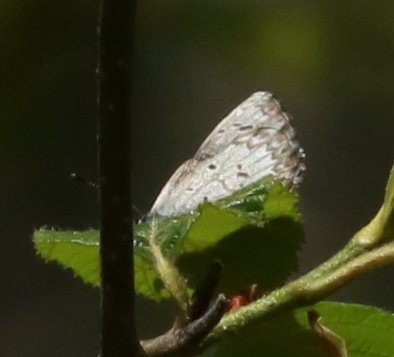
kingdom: Animalia
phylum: Arthropoda
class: Insecta
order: Lepidoptera
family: Lycaenidae
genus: Celastrina
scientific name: Celastrina lucia
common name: Northern Spring Azure
